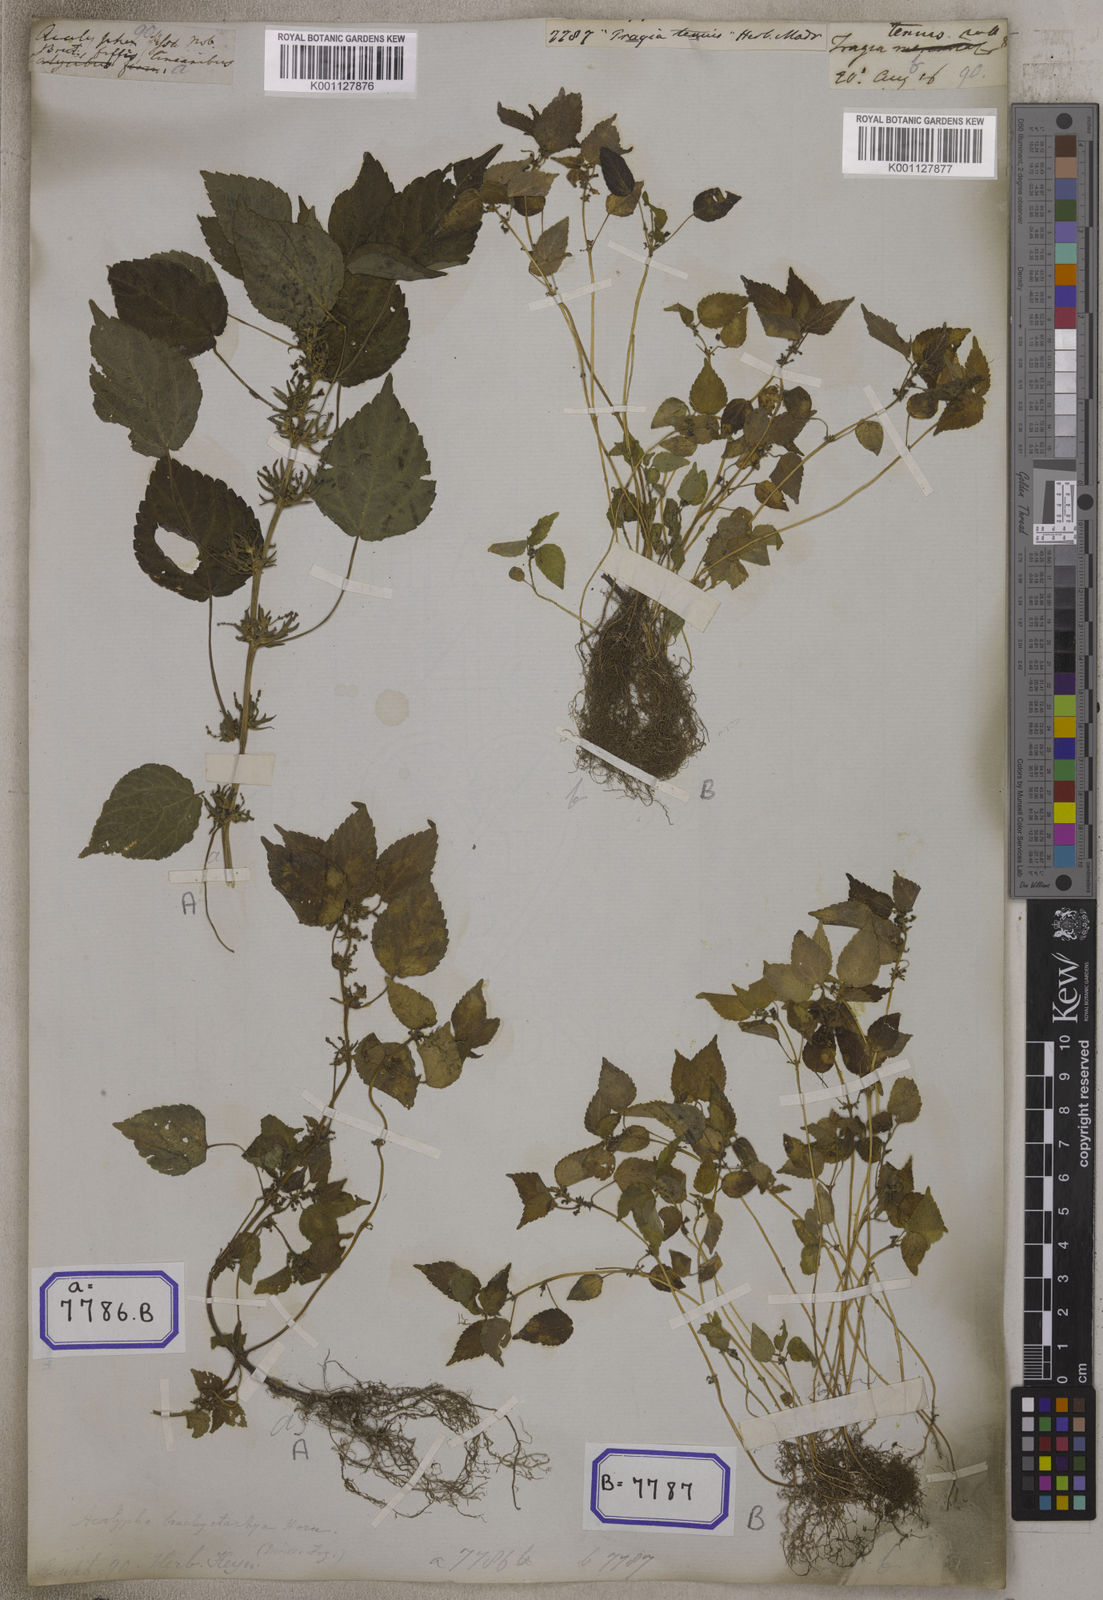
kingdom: Plantae
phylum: Tracheophyta
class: Magnoliopsida
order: Malpighiales
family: Euphorbiaceae
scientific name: Euphorbiaceae
